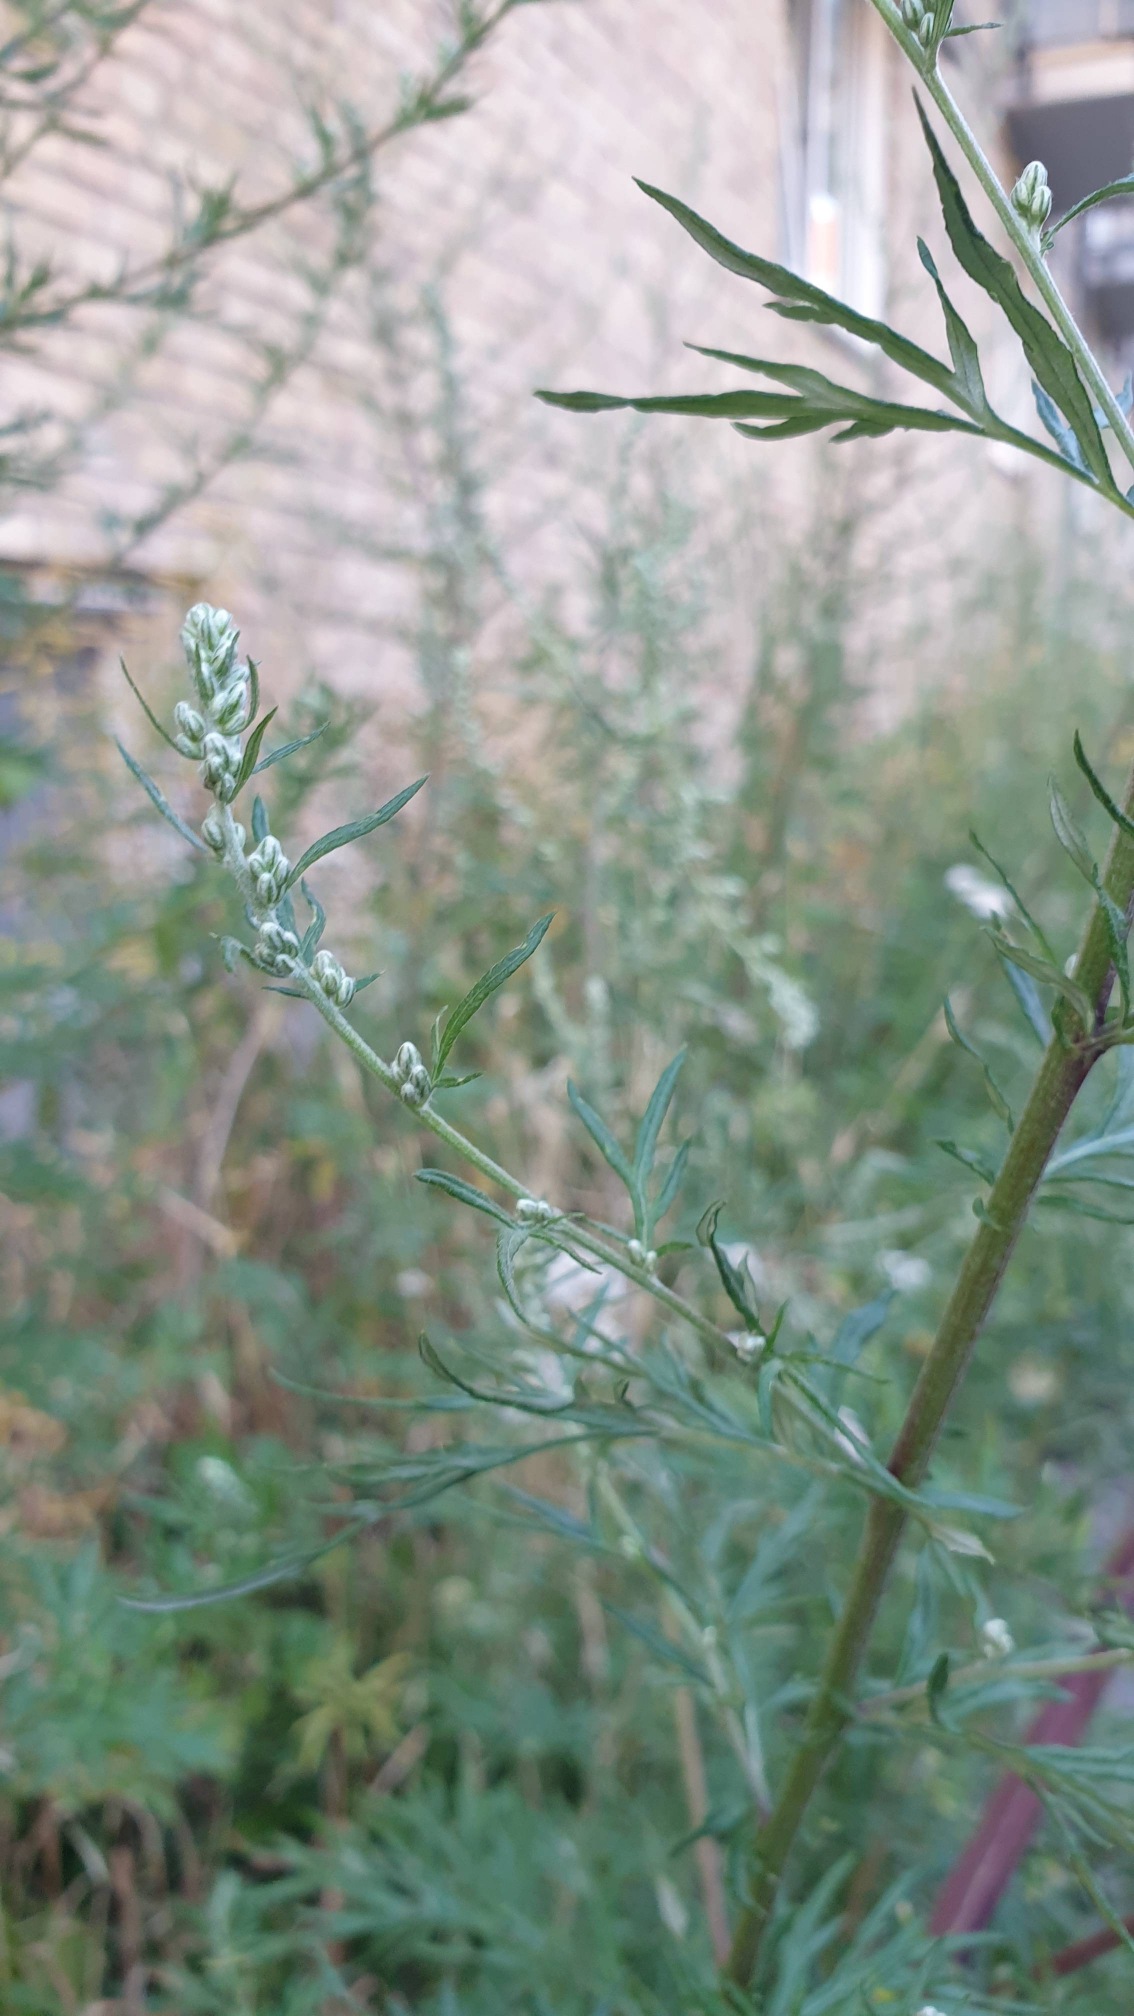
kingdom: Plantae
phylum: Tracheophyta
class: Magnoliopsida
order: Asterales
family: Asteraceae
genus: Artemisia
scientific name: Artemisia vulgaris
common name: Grå-bynke
